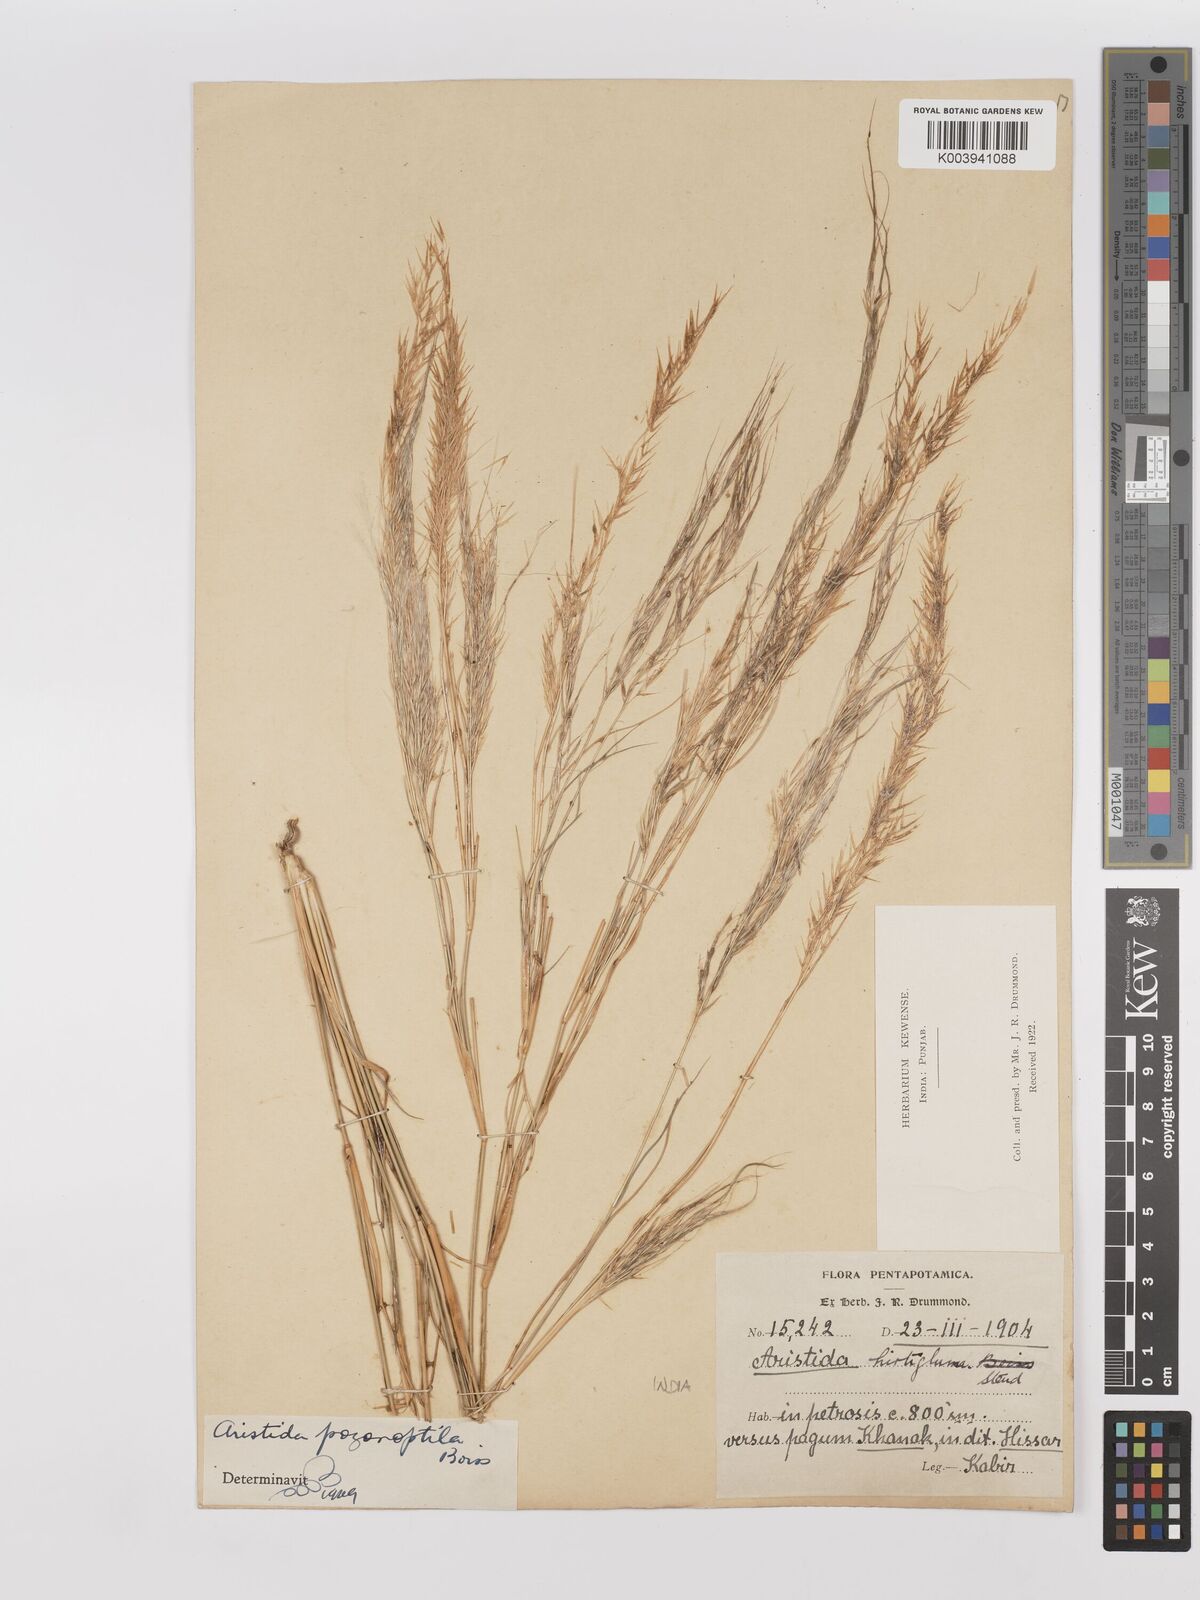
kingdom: Plantae
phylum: Tracheophyta
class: Liliopsida
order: Poales
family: Poaceae
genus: Stipagrostis
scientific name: Stipagrostis uniplumis
